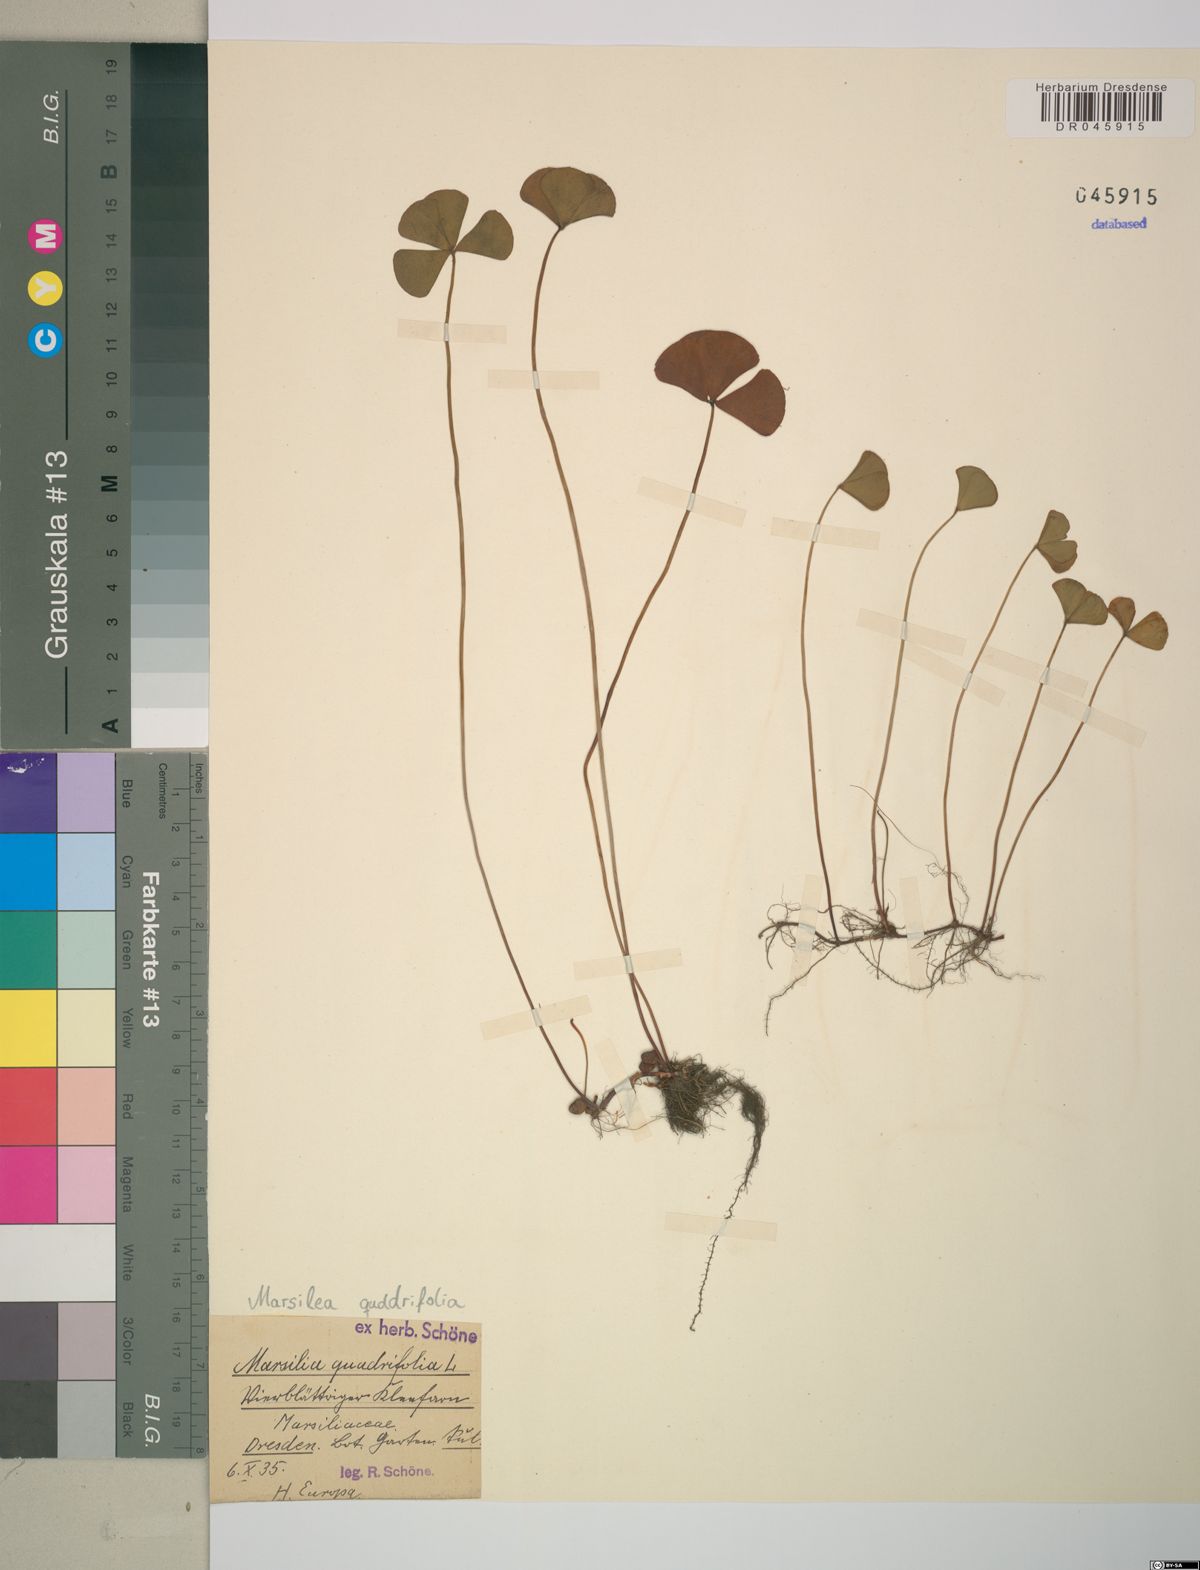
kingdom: Plantae
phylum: Tracheophyta
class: Polypodiopsida
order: Salviniales
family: Marsileaceae
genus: Marsilea
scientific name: Marsilea quadrifolia
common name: Water shamrock
